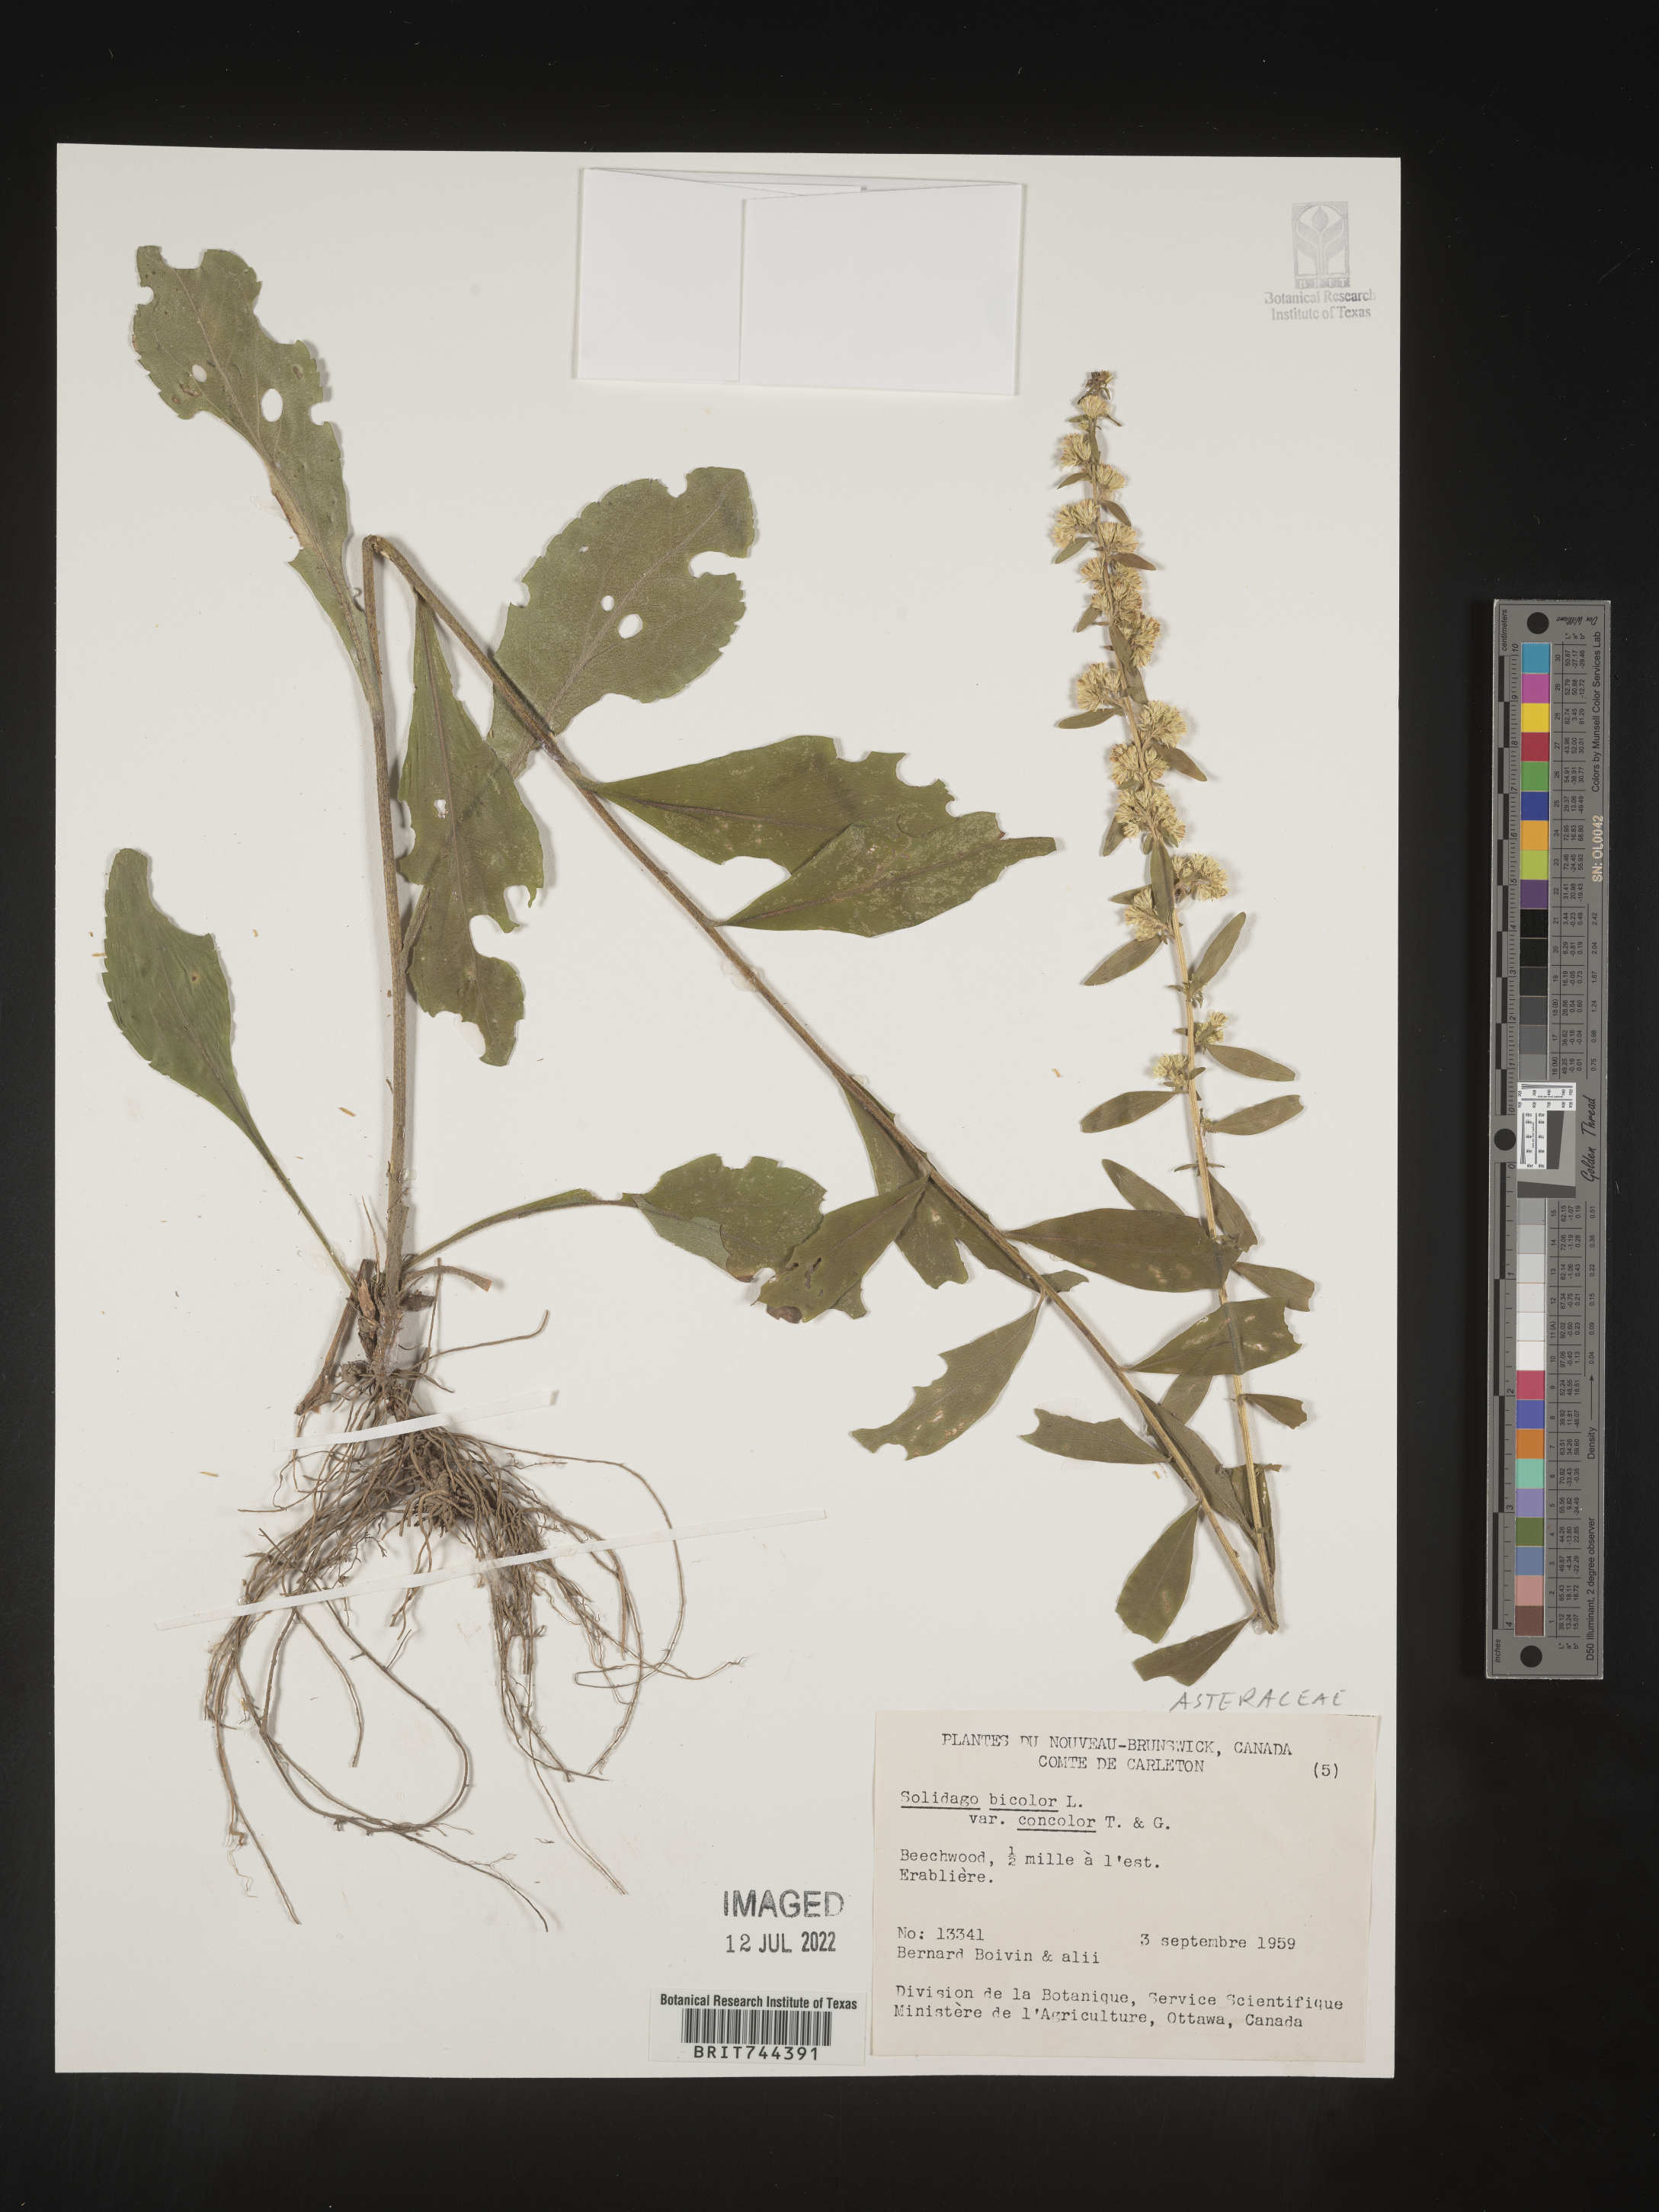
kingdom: Plantae
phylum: Tracheophyta
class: Magnoliopsida
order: Asterales
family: Asteraceae
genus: Solidago
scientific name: Solidago bicolor
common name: Silverrod
